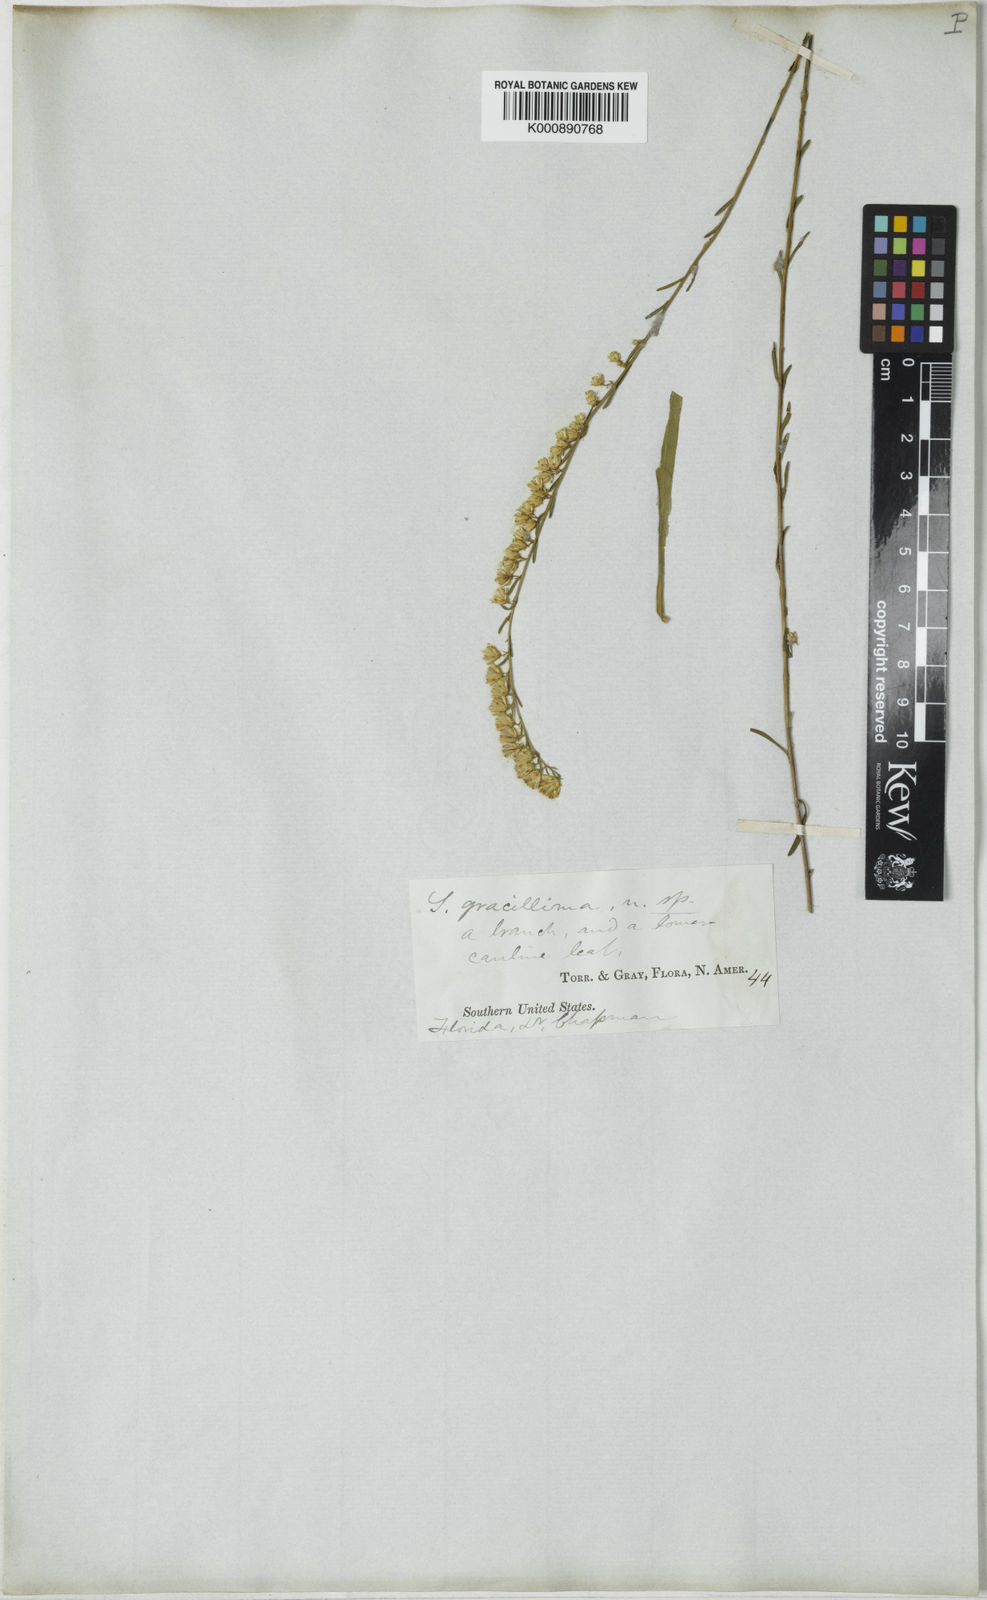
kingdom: Plantae
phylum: Tracheophyta
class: Magnoliopsida
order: Asterales
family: Asteraceae
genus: Solidago
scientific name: Solidago gracillima
